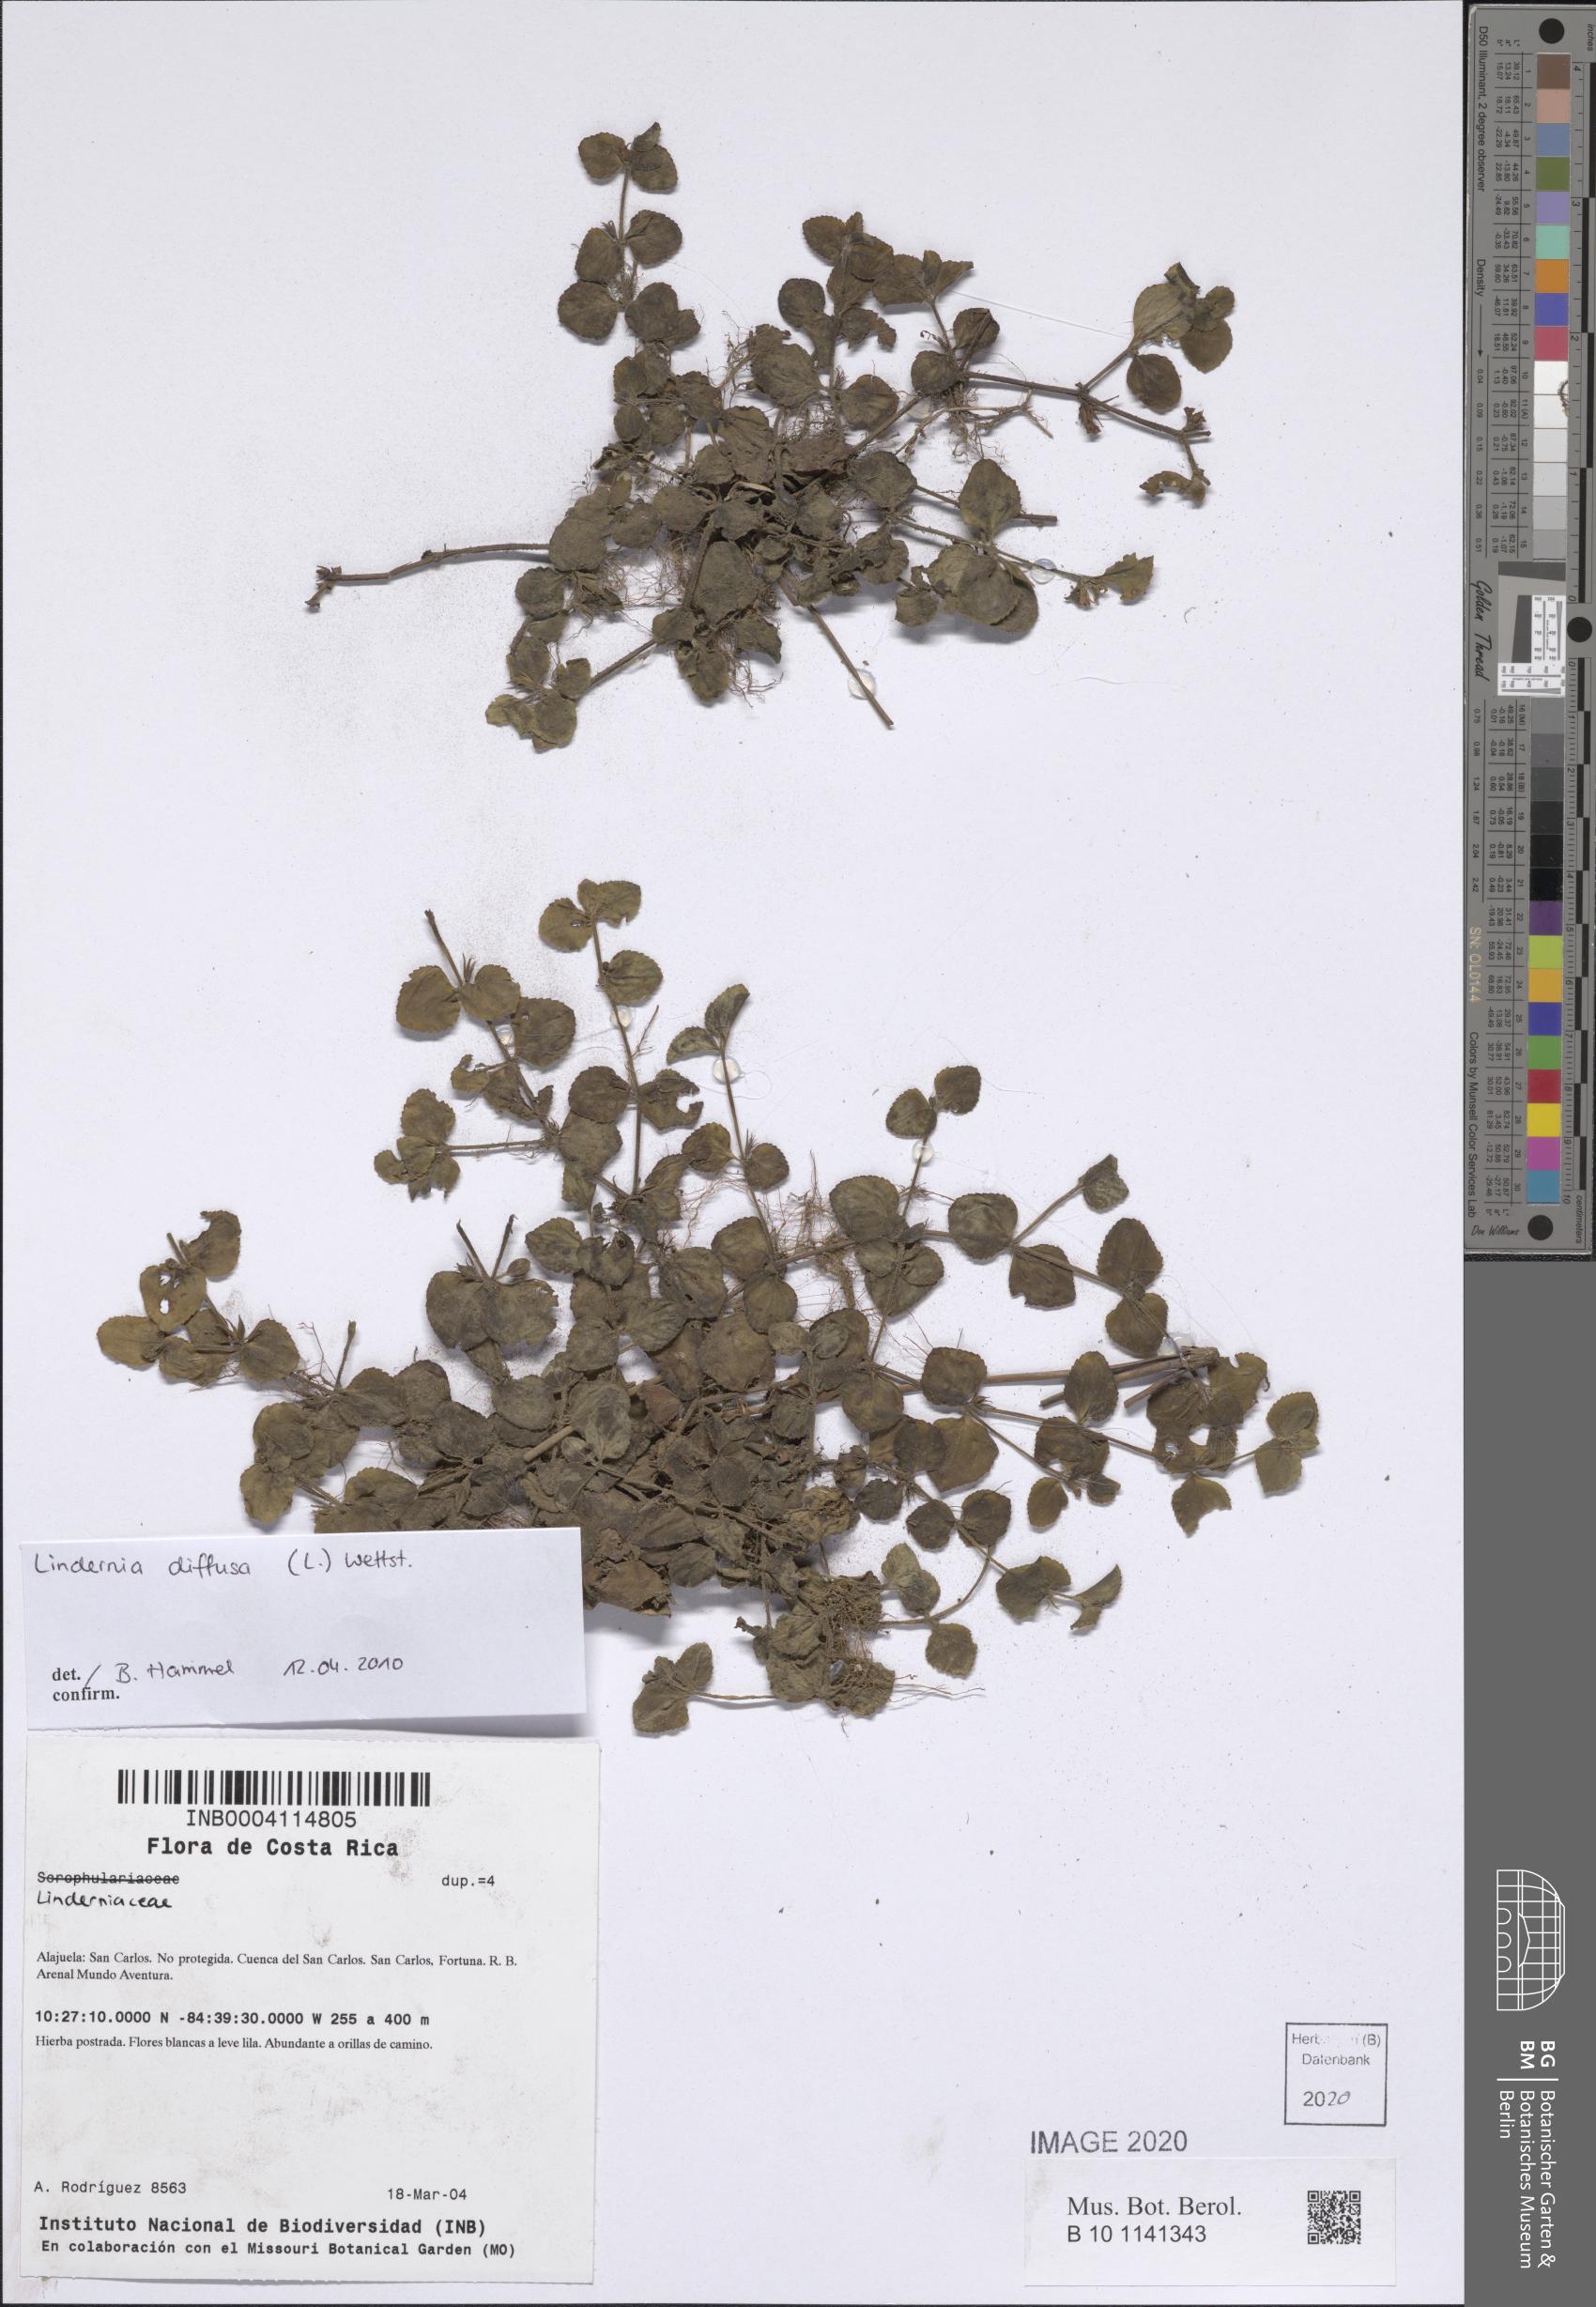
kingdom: Plantae
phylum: Tracheophyta
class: Magnoliopsida
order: Lamiales
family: Linderniaceae
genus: Vandellia
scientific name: Vandellia diffusa
